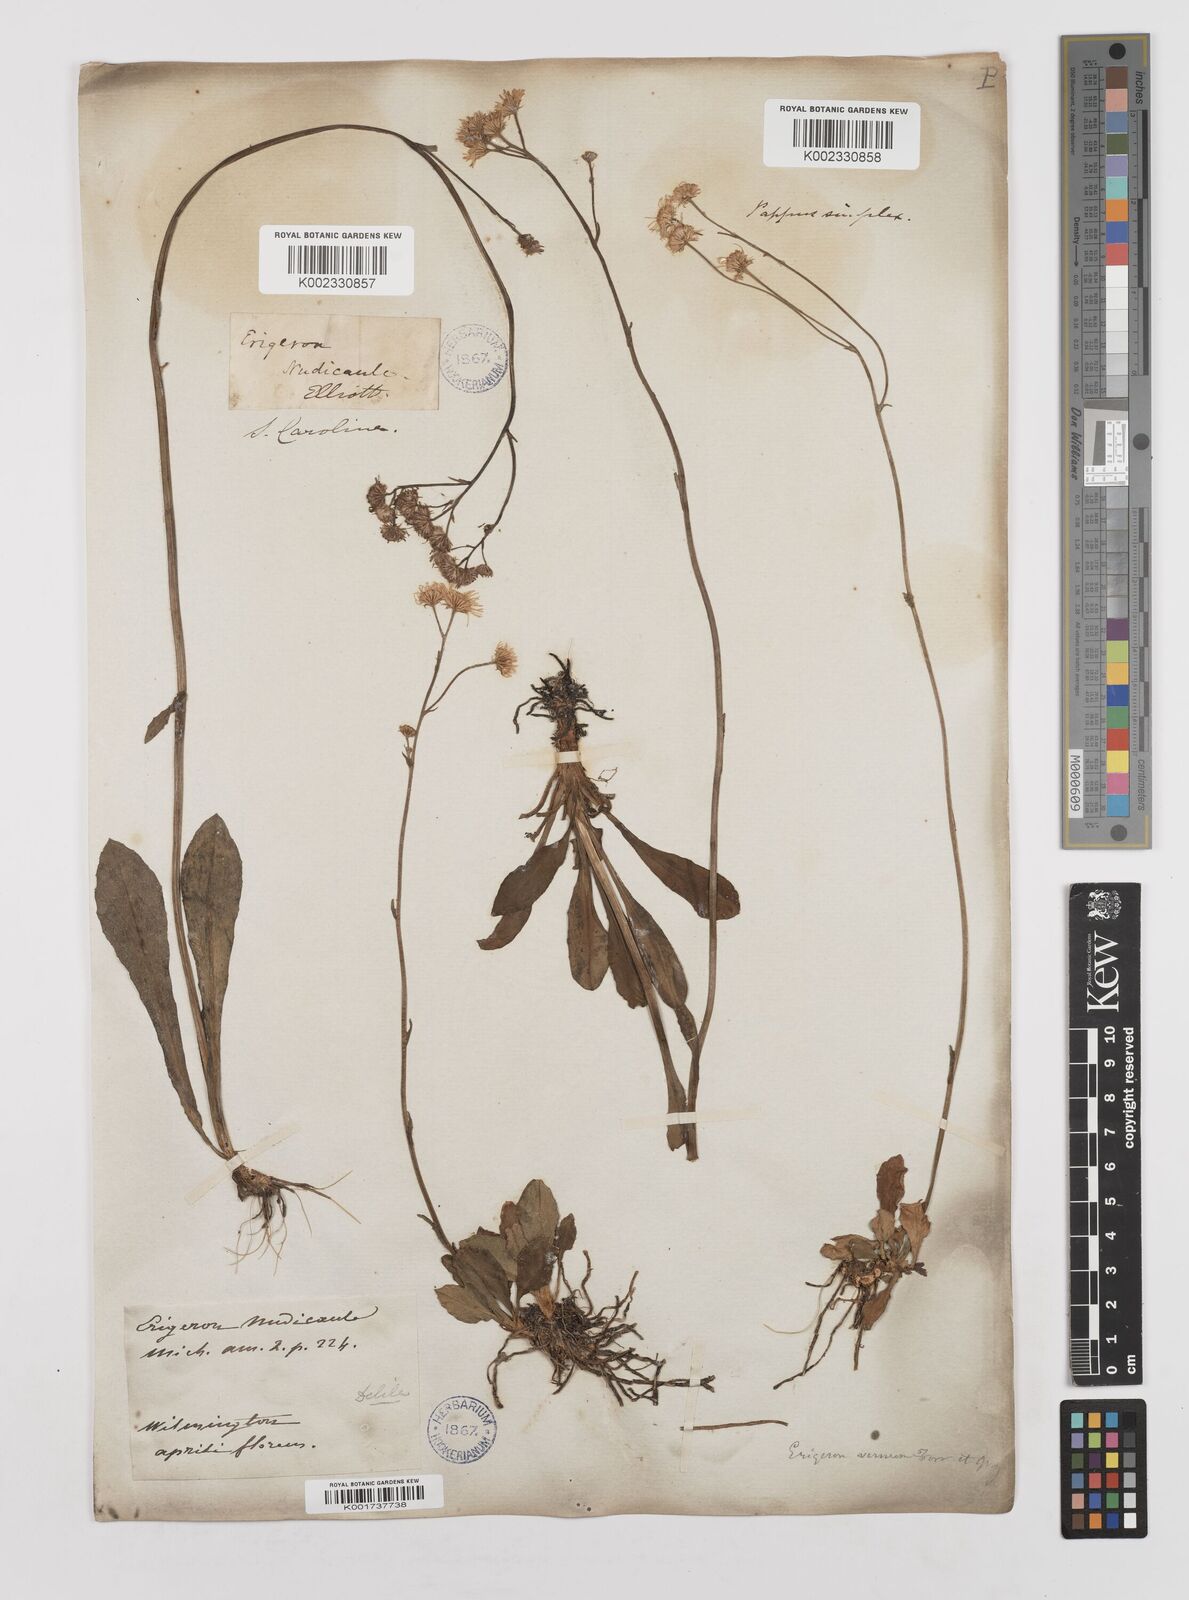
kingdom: Plantae
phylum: Tracheophyta
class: Magnoliopsida
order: Asterales
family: Asteraceae
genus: Erigeron
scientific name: Erigeron vernus
